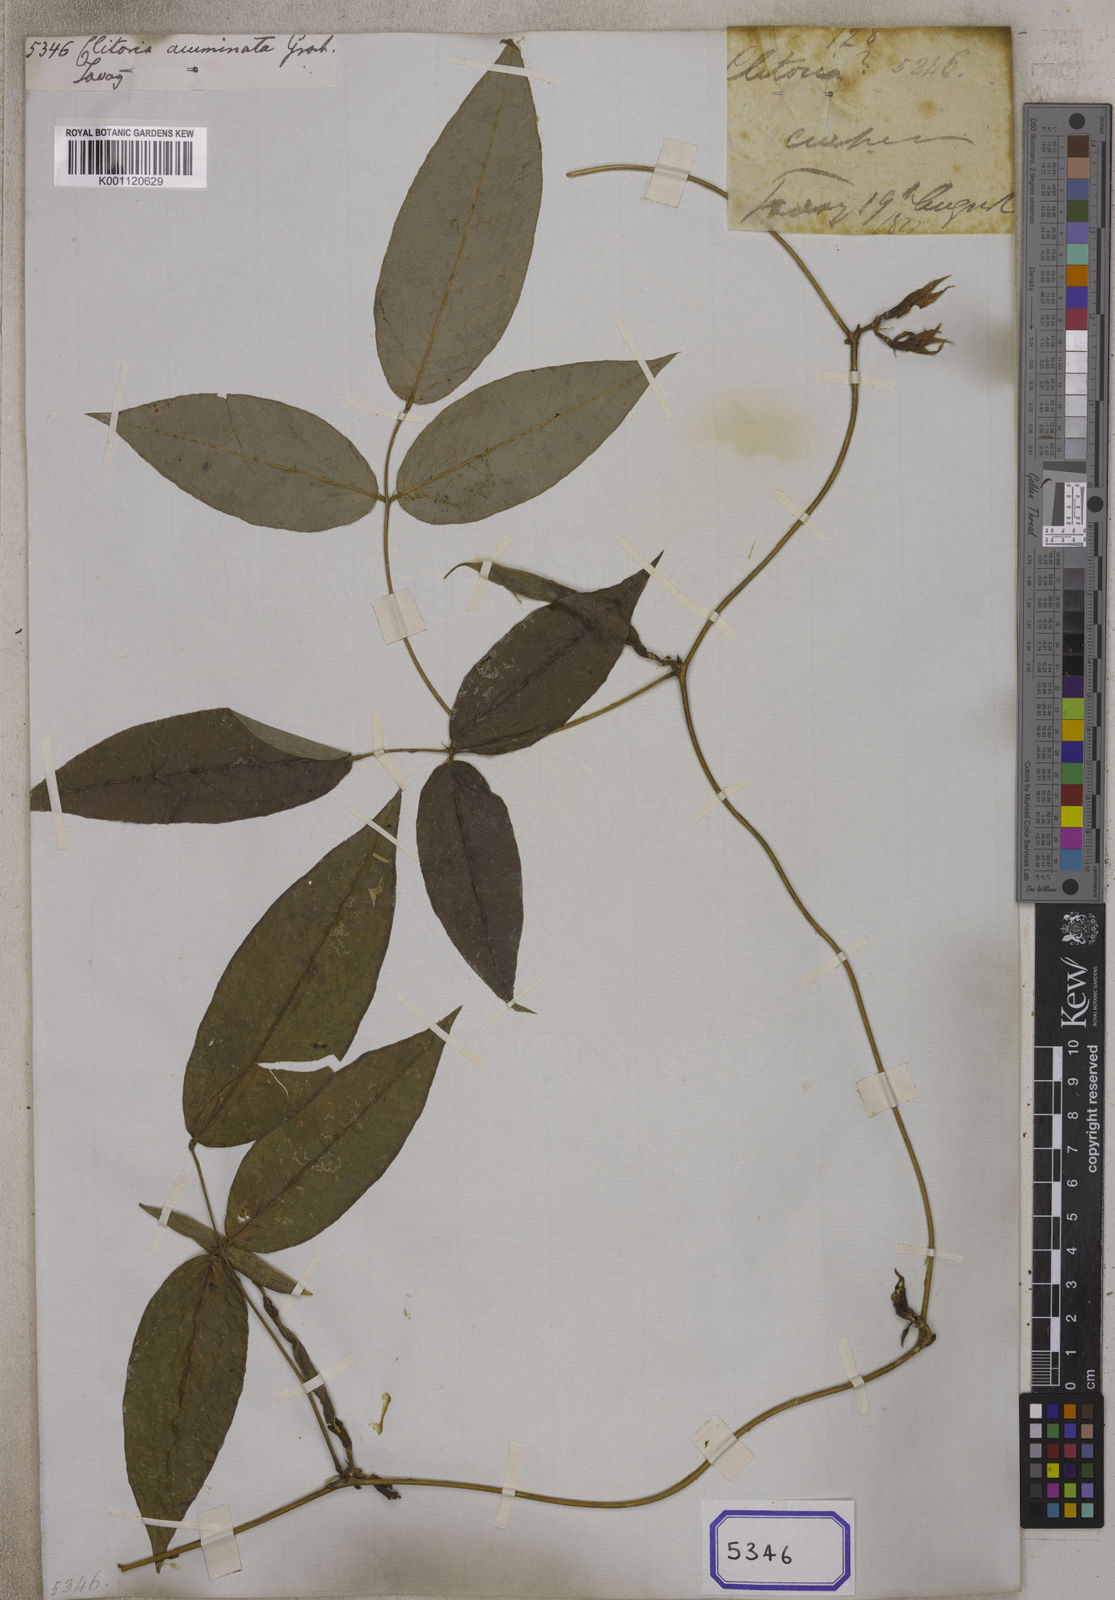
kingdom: Plantae
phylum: Tracheophyta
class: Magnoliopsida
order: Fabales
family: Fabaceae
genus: Clitoria
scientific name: Clitoria
